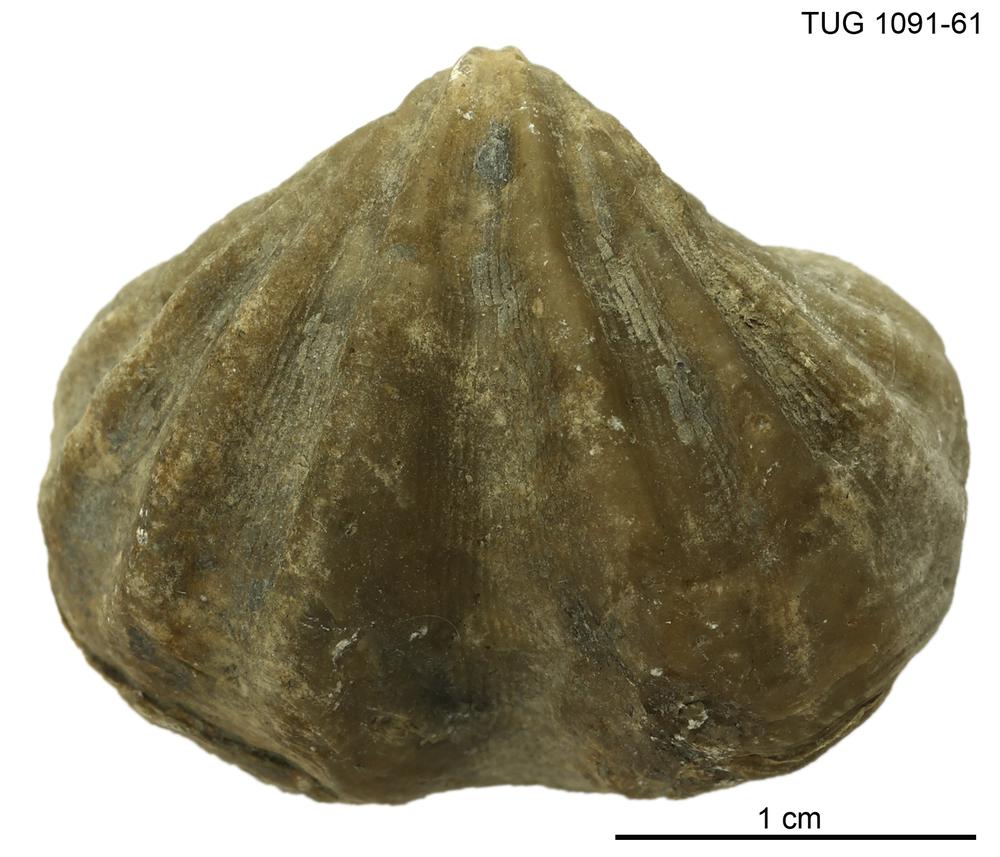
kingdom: Animalia
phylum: Brachiopoda
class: Rhynchonellata
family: Delthyrididae
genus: Delthyris
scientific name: Delthyris
